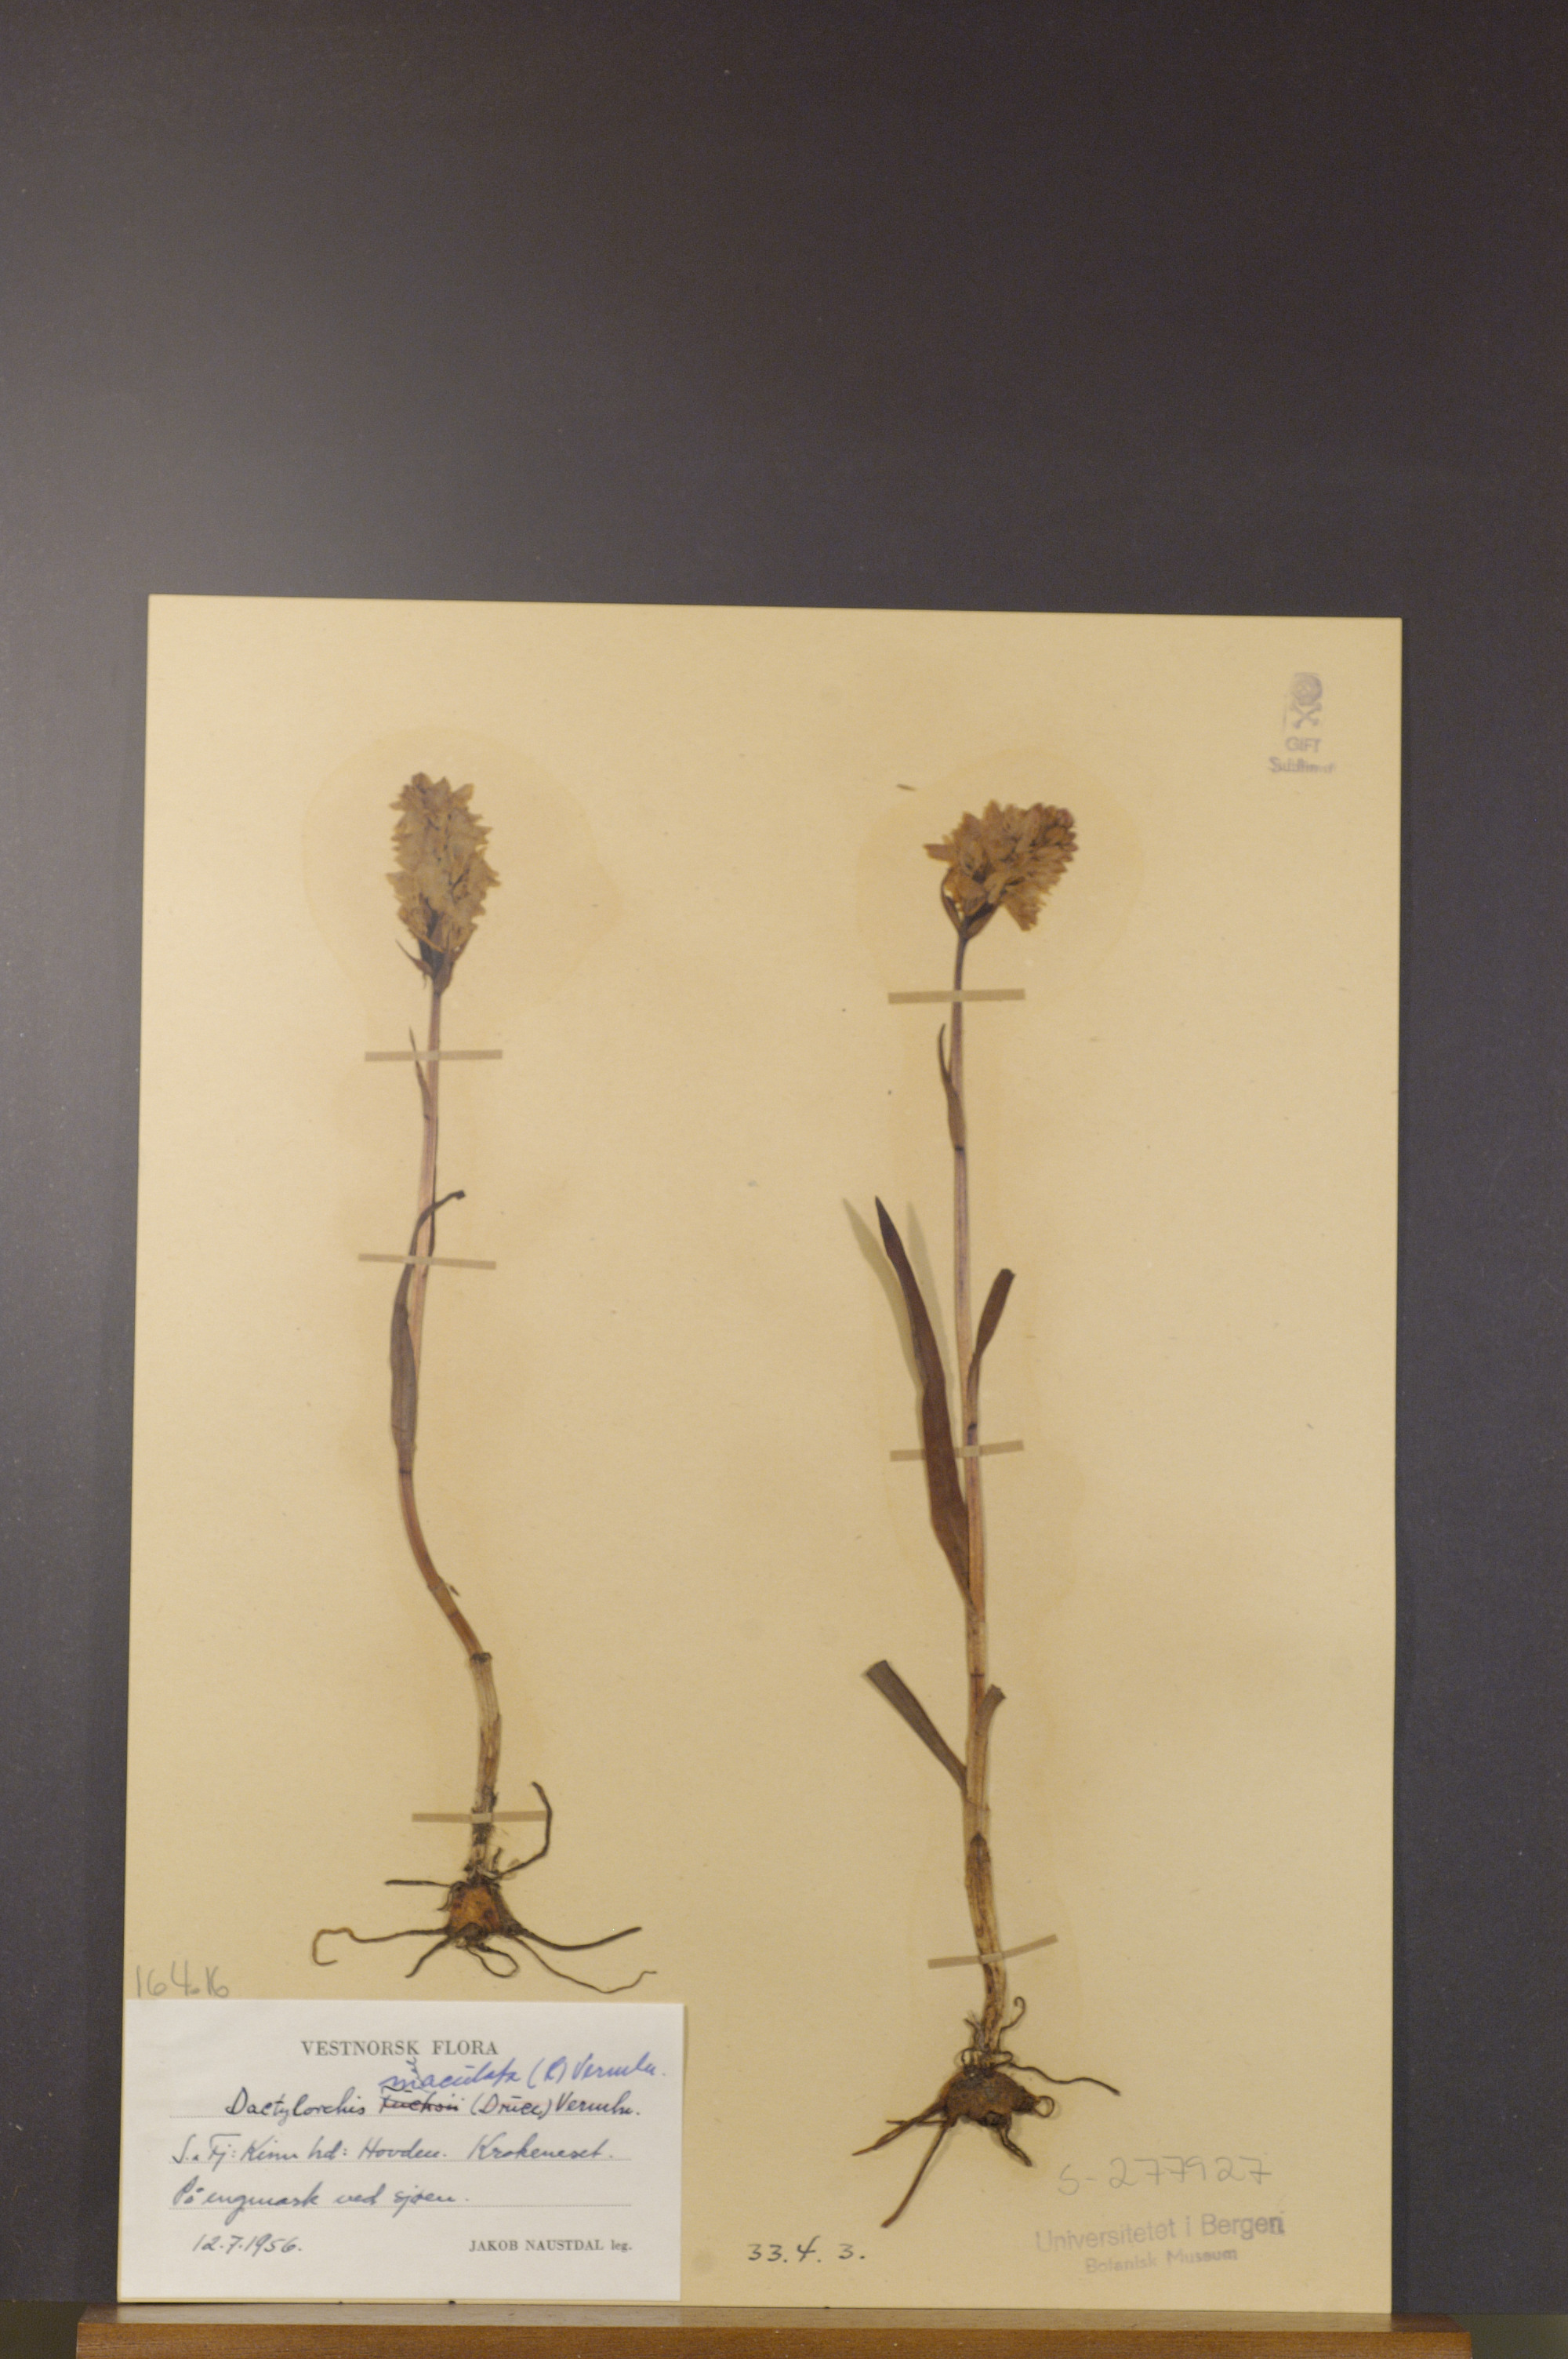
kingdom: Plantae
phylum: Tracheophyta
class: Liliopsida
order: Asparagales
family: Orchidaceae
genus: Dactylorhiza
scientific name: Dactylorhiza maculata
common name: Heath spotted-orchid
